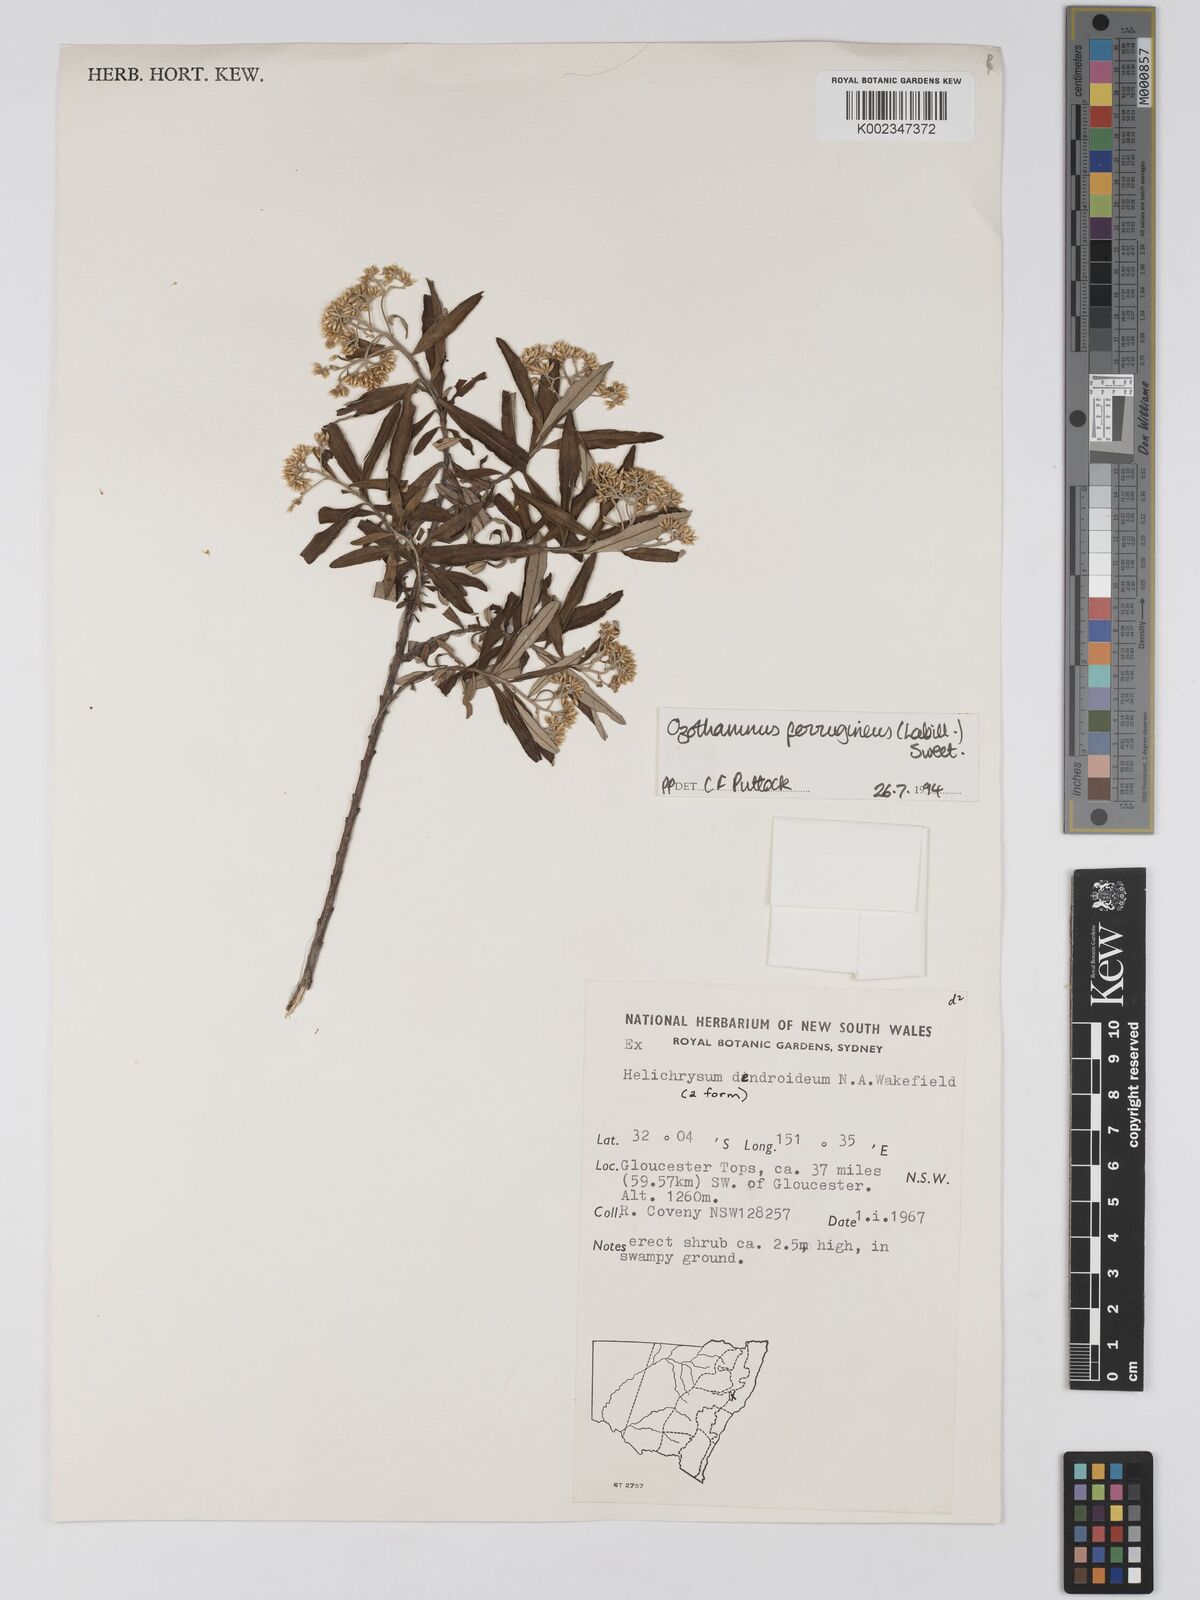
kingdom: Plantae
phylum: Tracheophyta
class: Magnoliopsida
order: Asterales
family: Asteraceae
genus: Ozothamnus
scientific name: Ozothamnus ferrugineus
